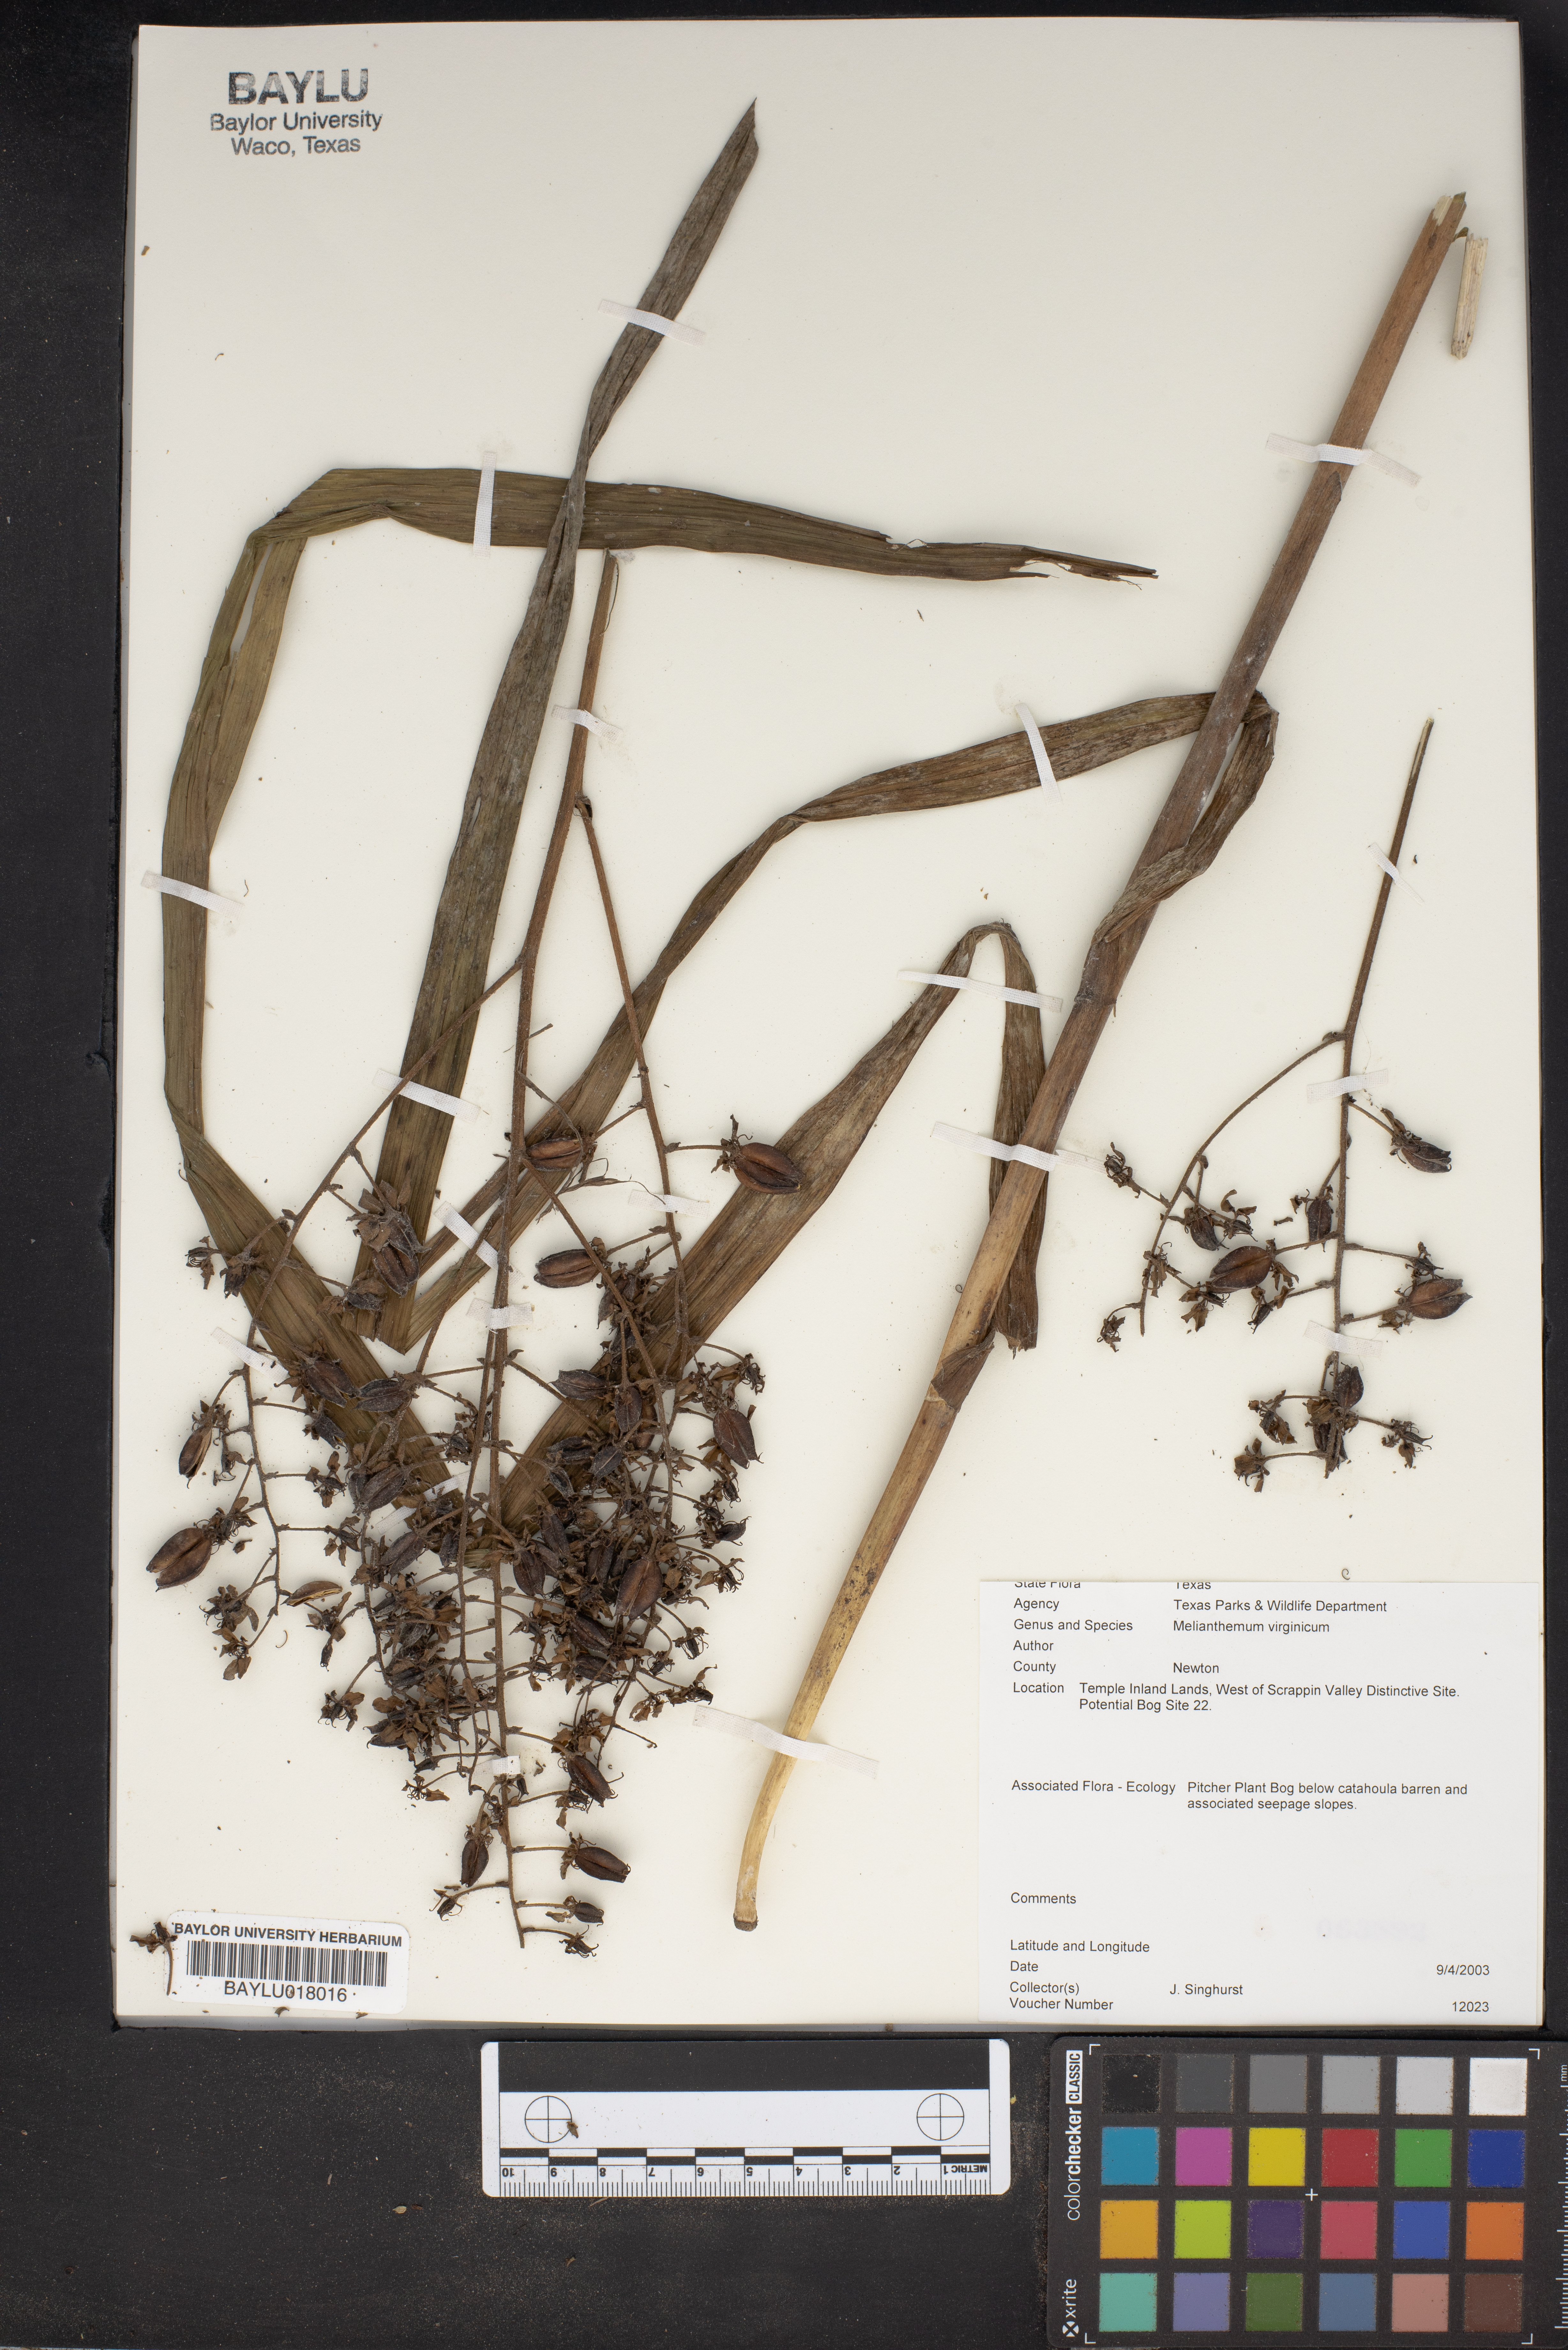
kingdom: Plantae
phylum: Tracheophyta
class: Liliopsida
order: Liliales
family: Melanthiaceae
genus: Melanthium
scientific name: Melanthium virginicum
